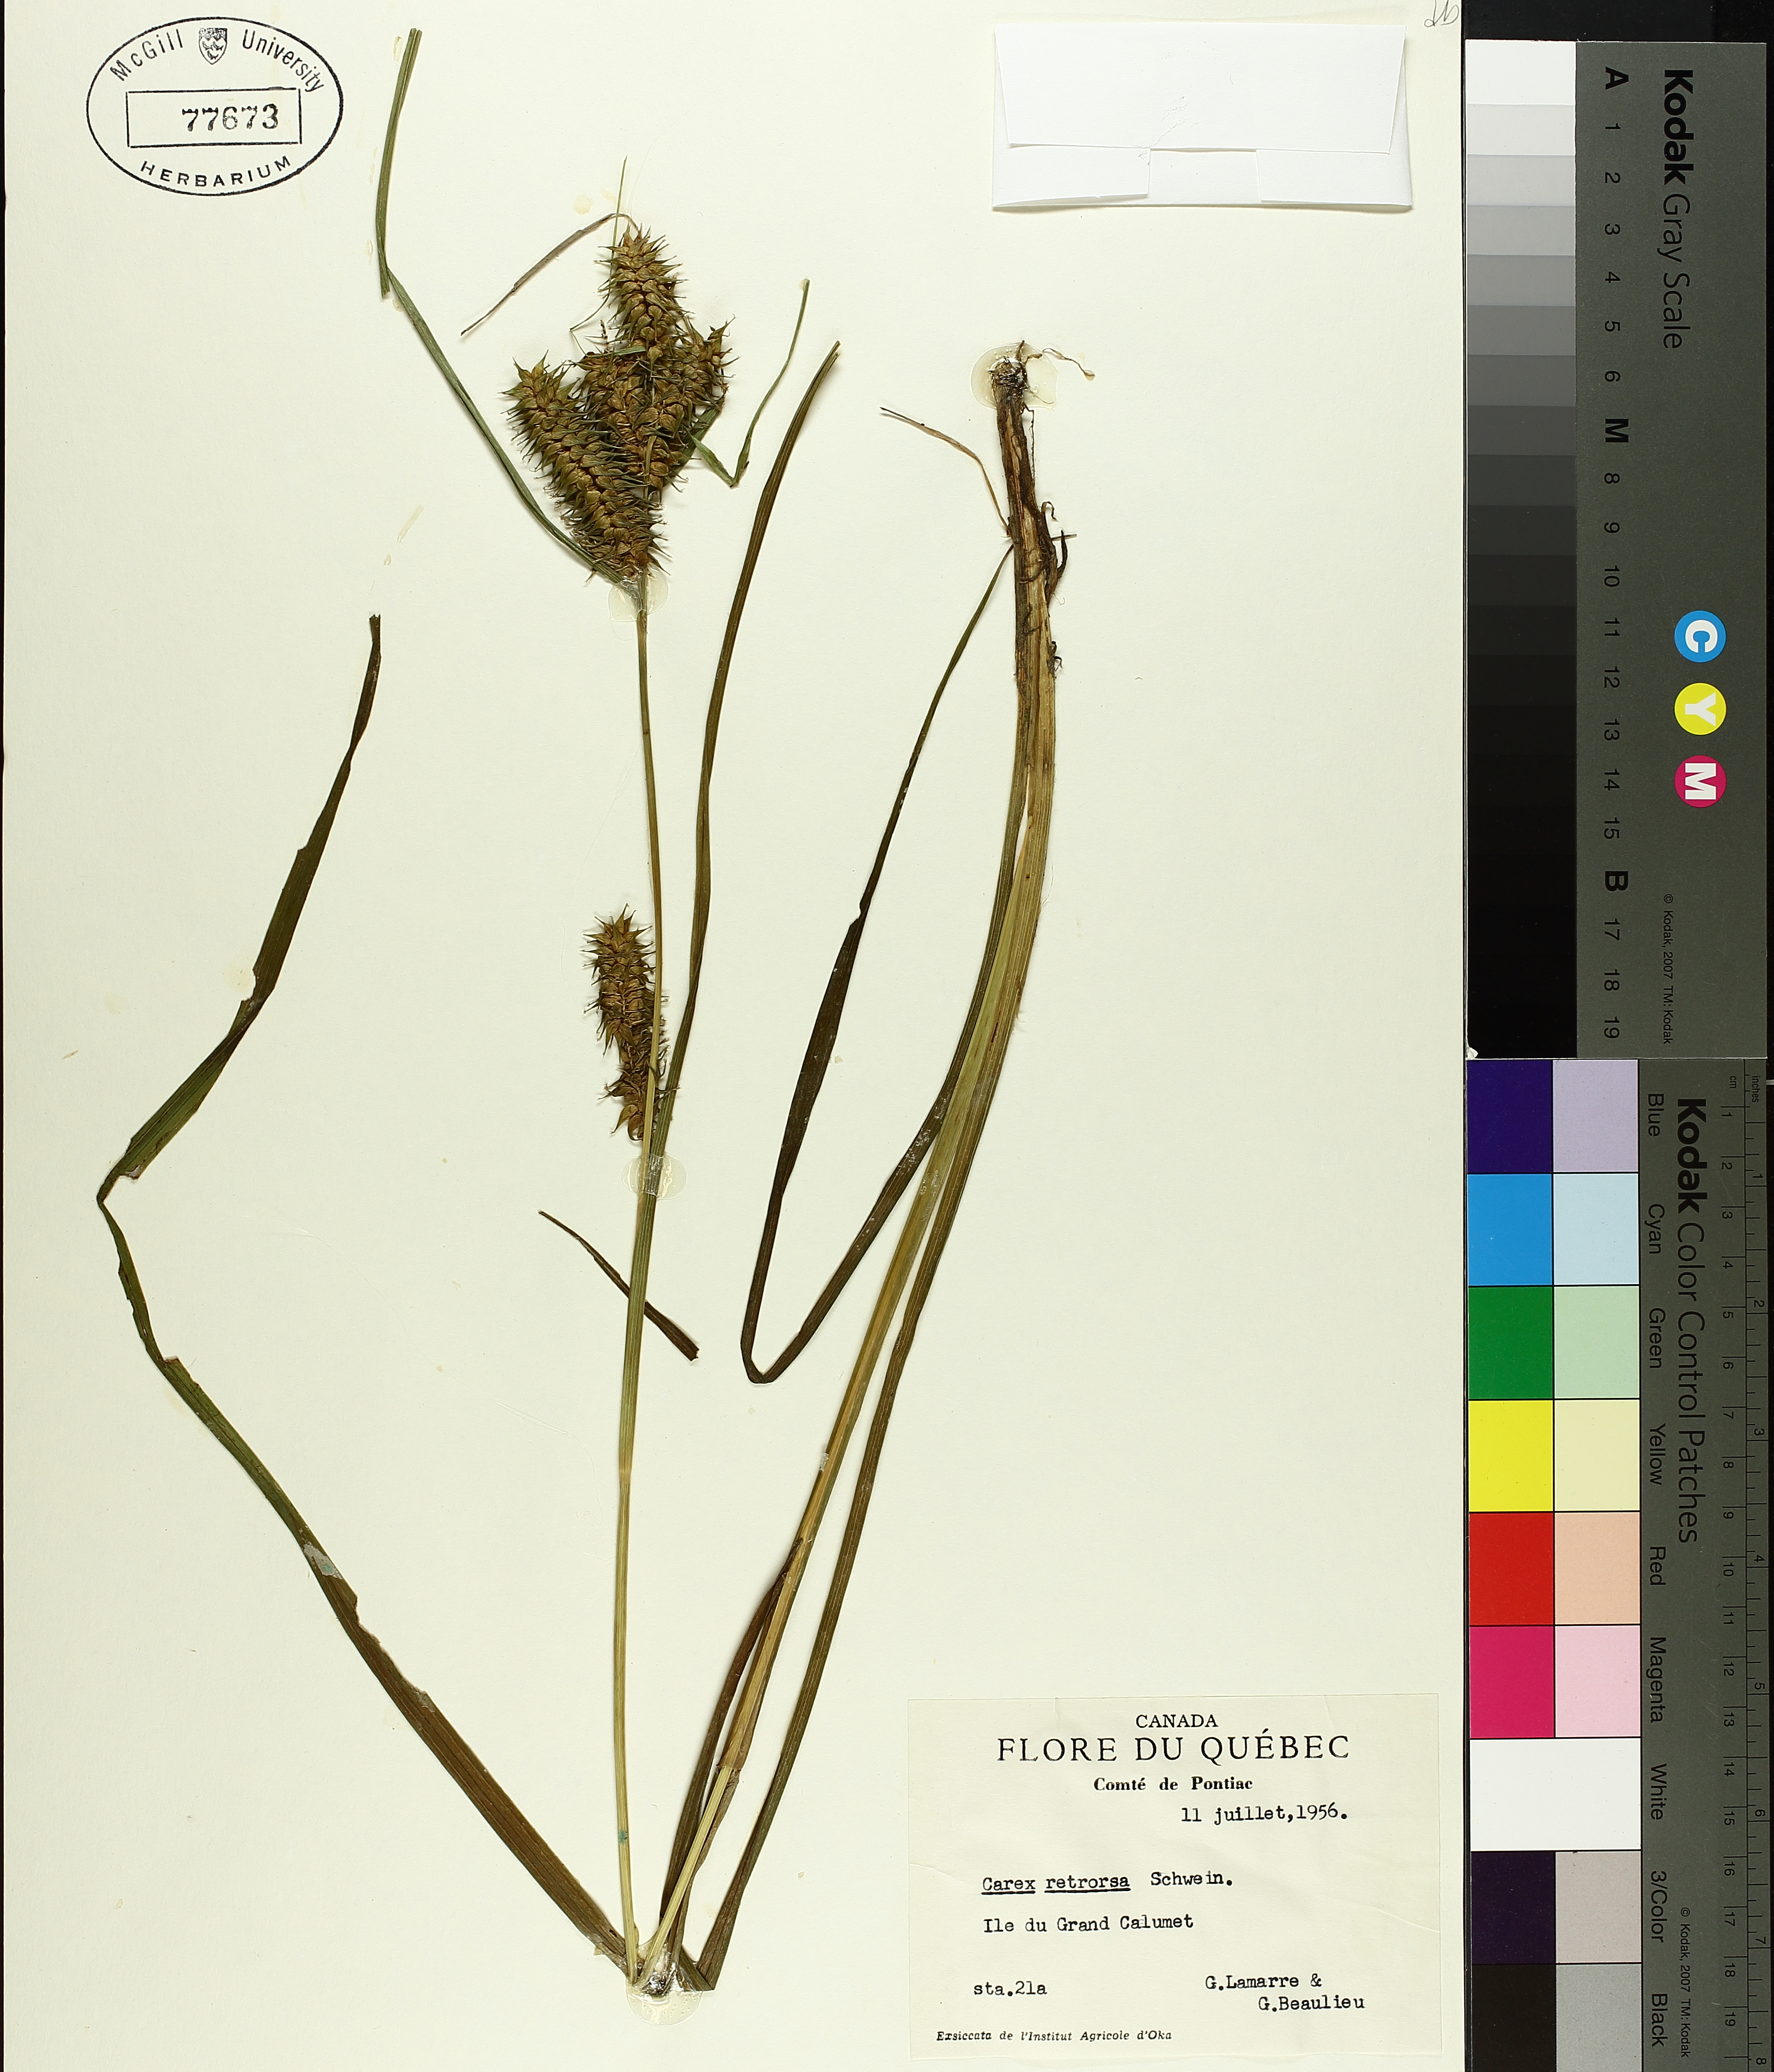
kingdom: Plantae
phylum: Tracheophyta
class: Liliopsida
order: Poales
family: Cyperaceae
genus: Carex
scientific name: Carex retrorsa
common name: Knot-sheath sedge
